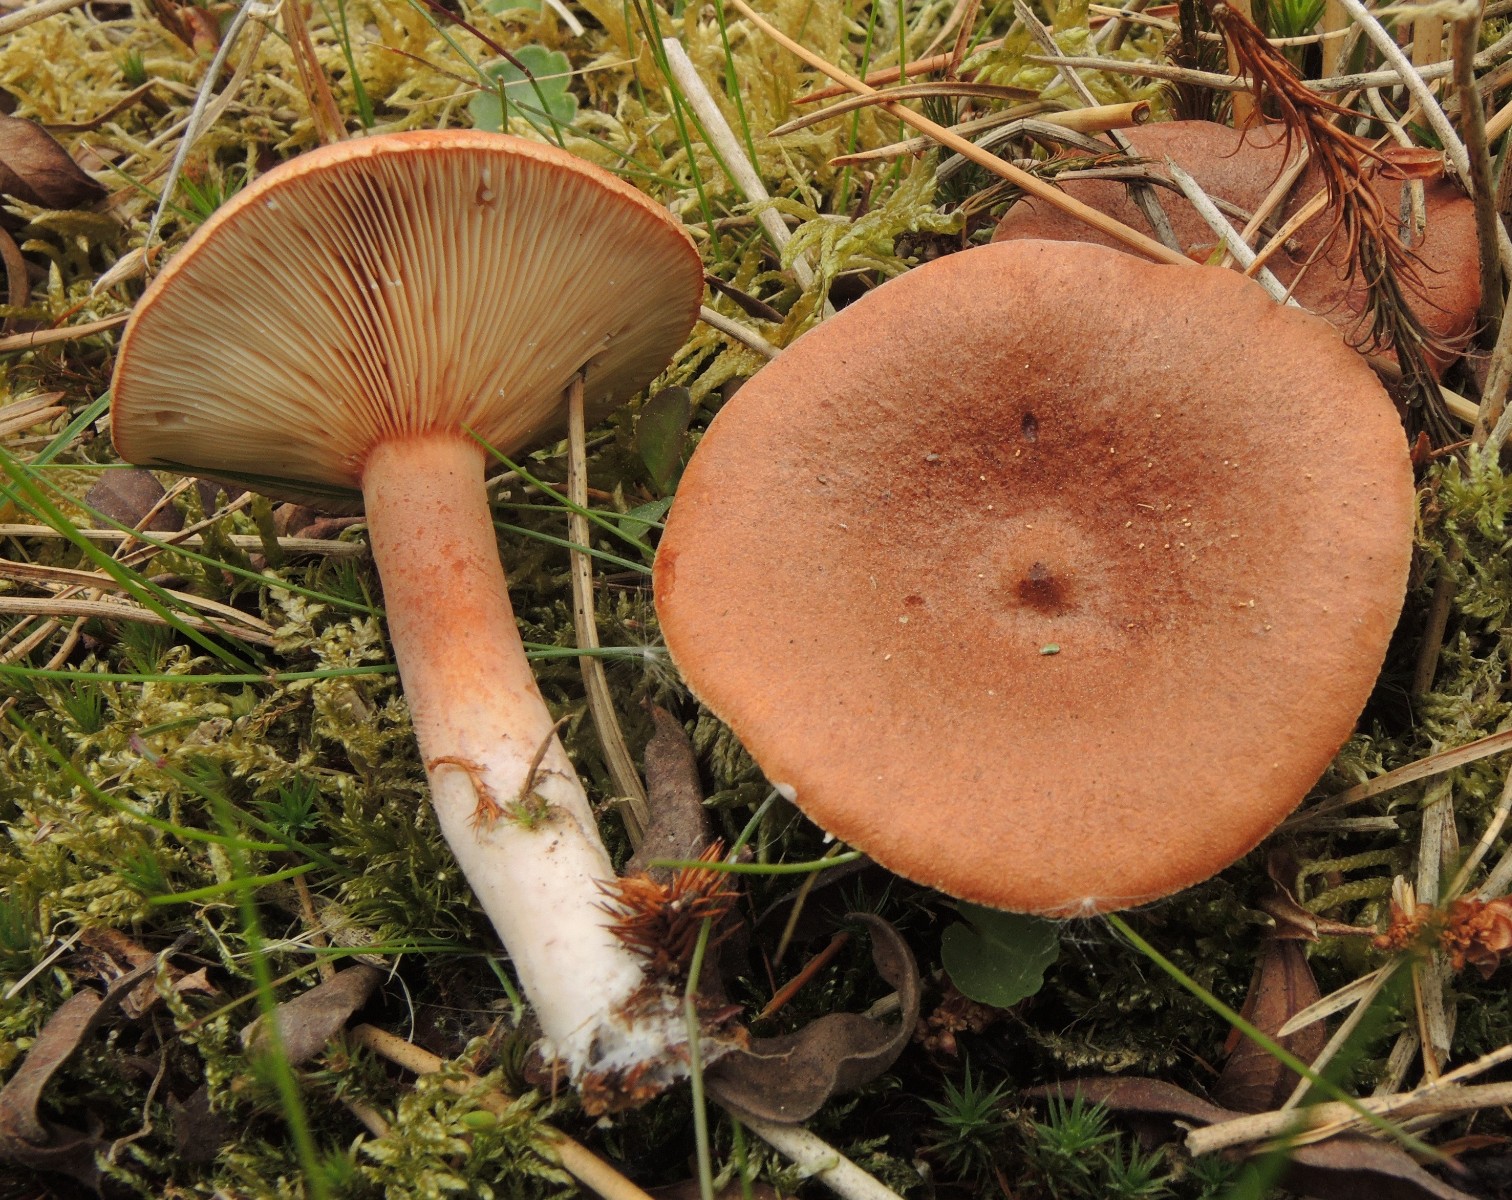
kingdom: Fungi
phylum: Basidiomycota
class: Agaricomycetes
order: Russulales
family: Russulaceae
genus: Lactarius
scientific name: Lactarius rufus
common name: rødbrun mælkehat
